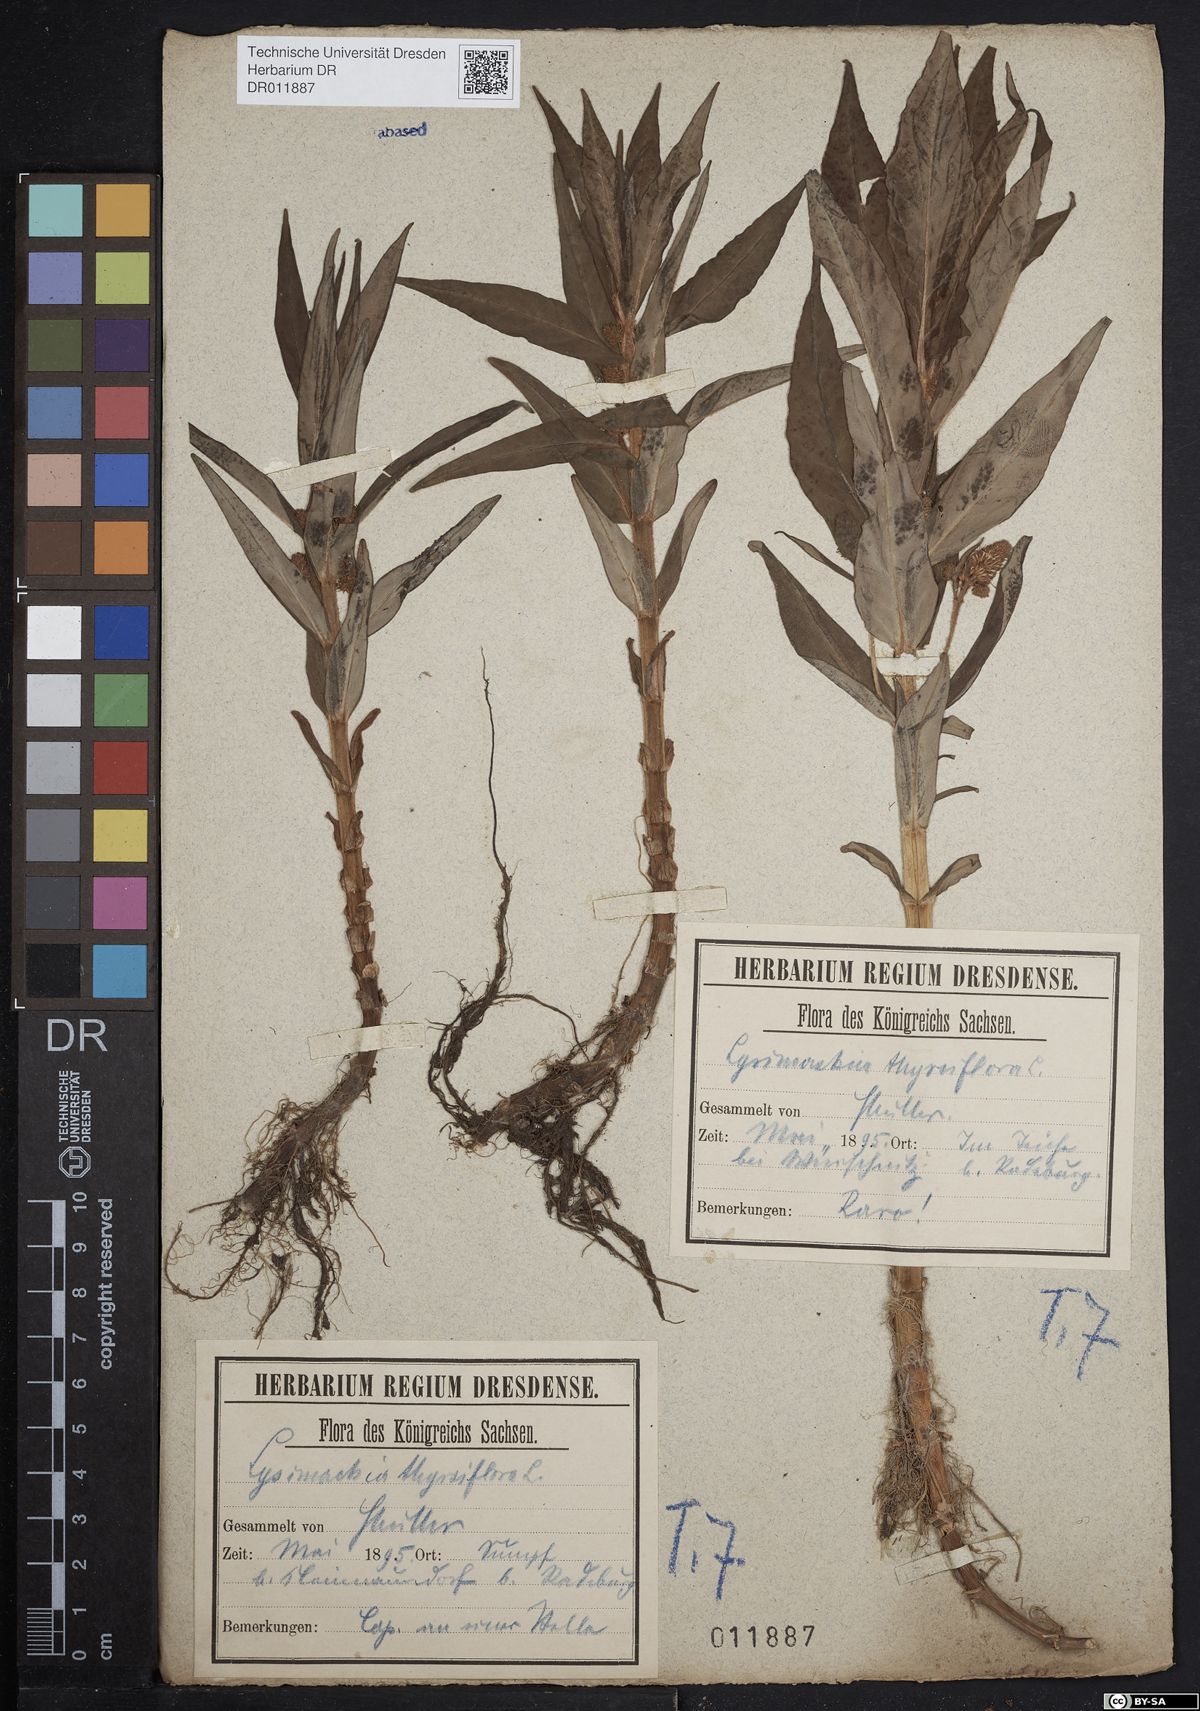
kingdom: Plantae
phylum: Tracheophyta
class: Magnoliopsida
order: Ericales
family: Primulaceae
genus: Lysimachia
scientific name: Lysimachia thyrsiflora
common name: Tufted loosestrife
